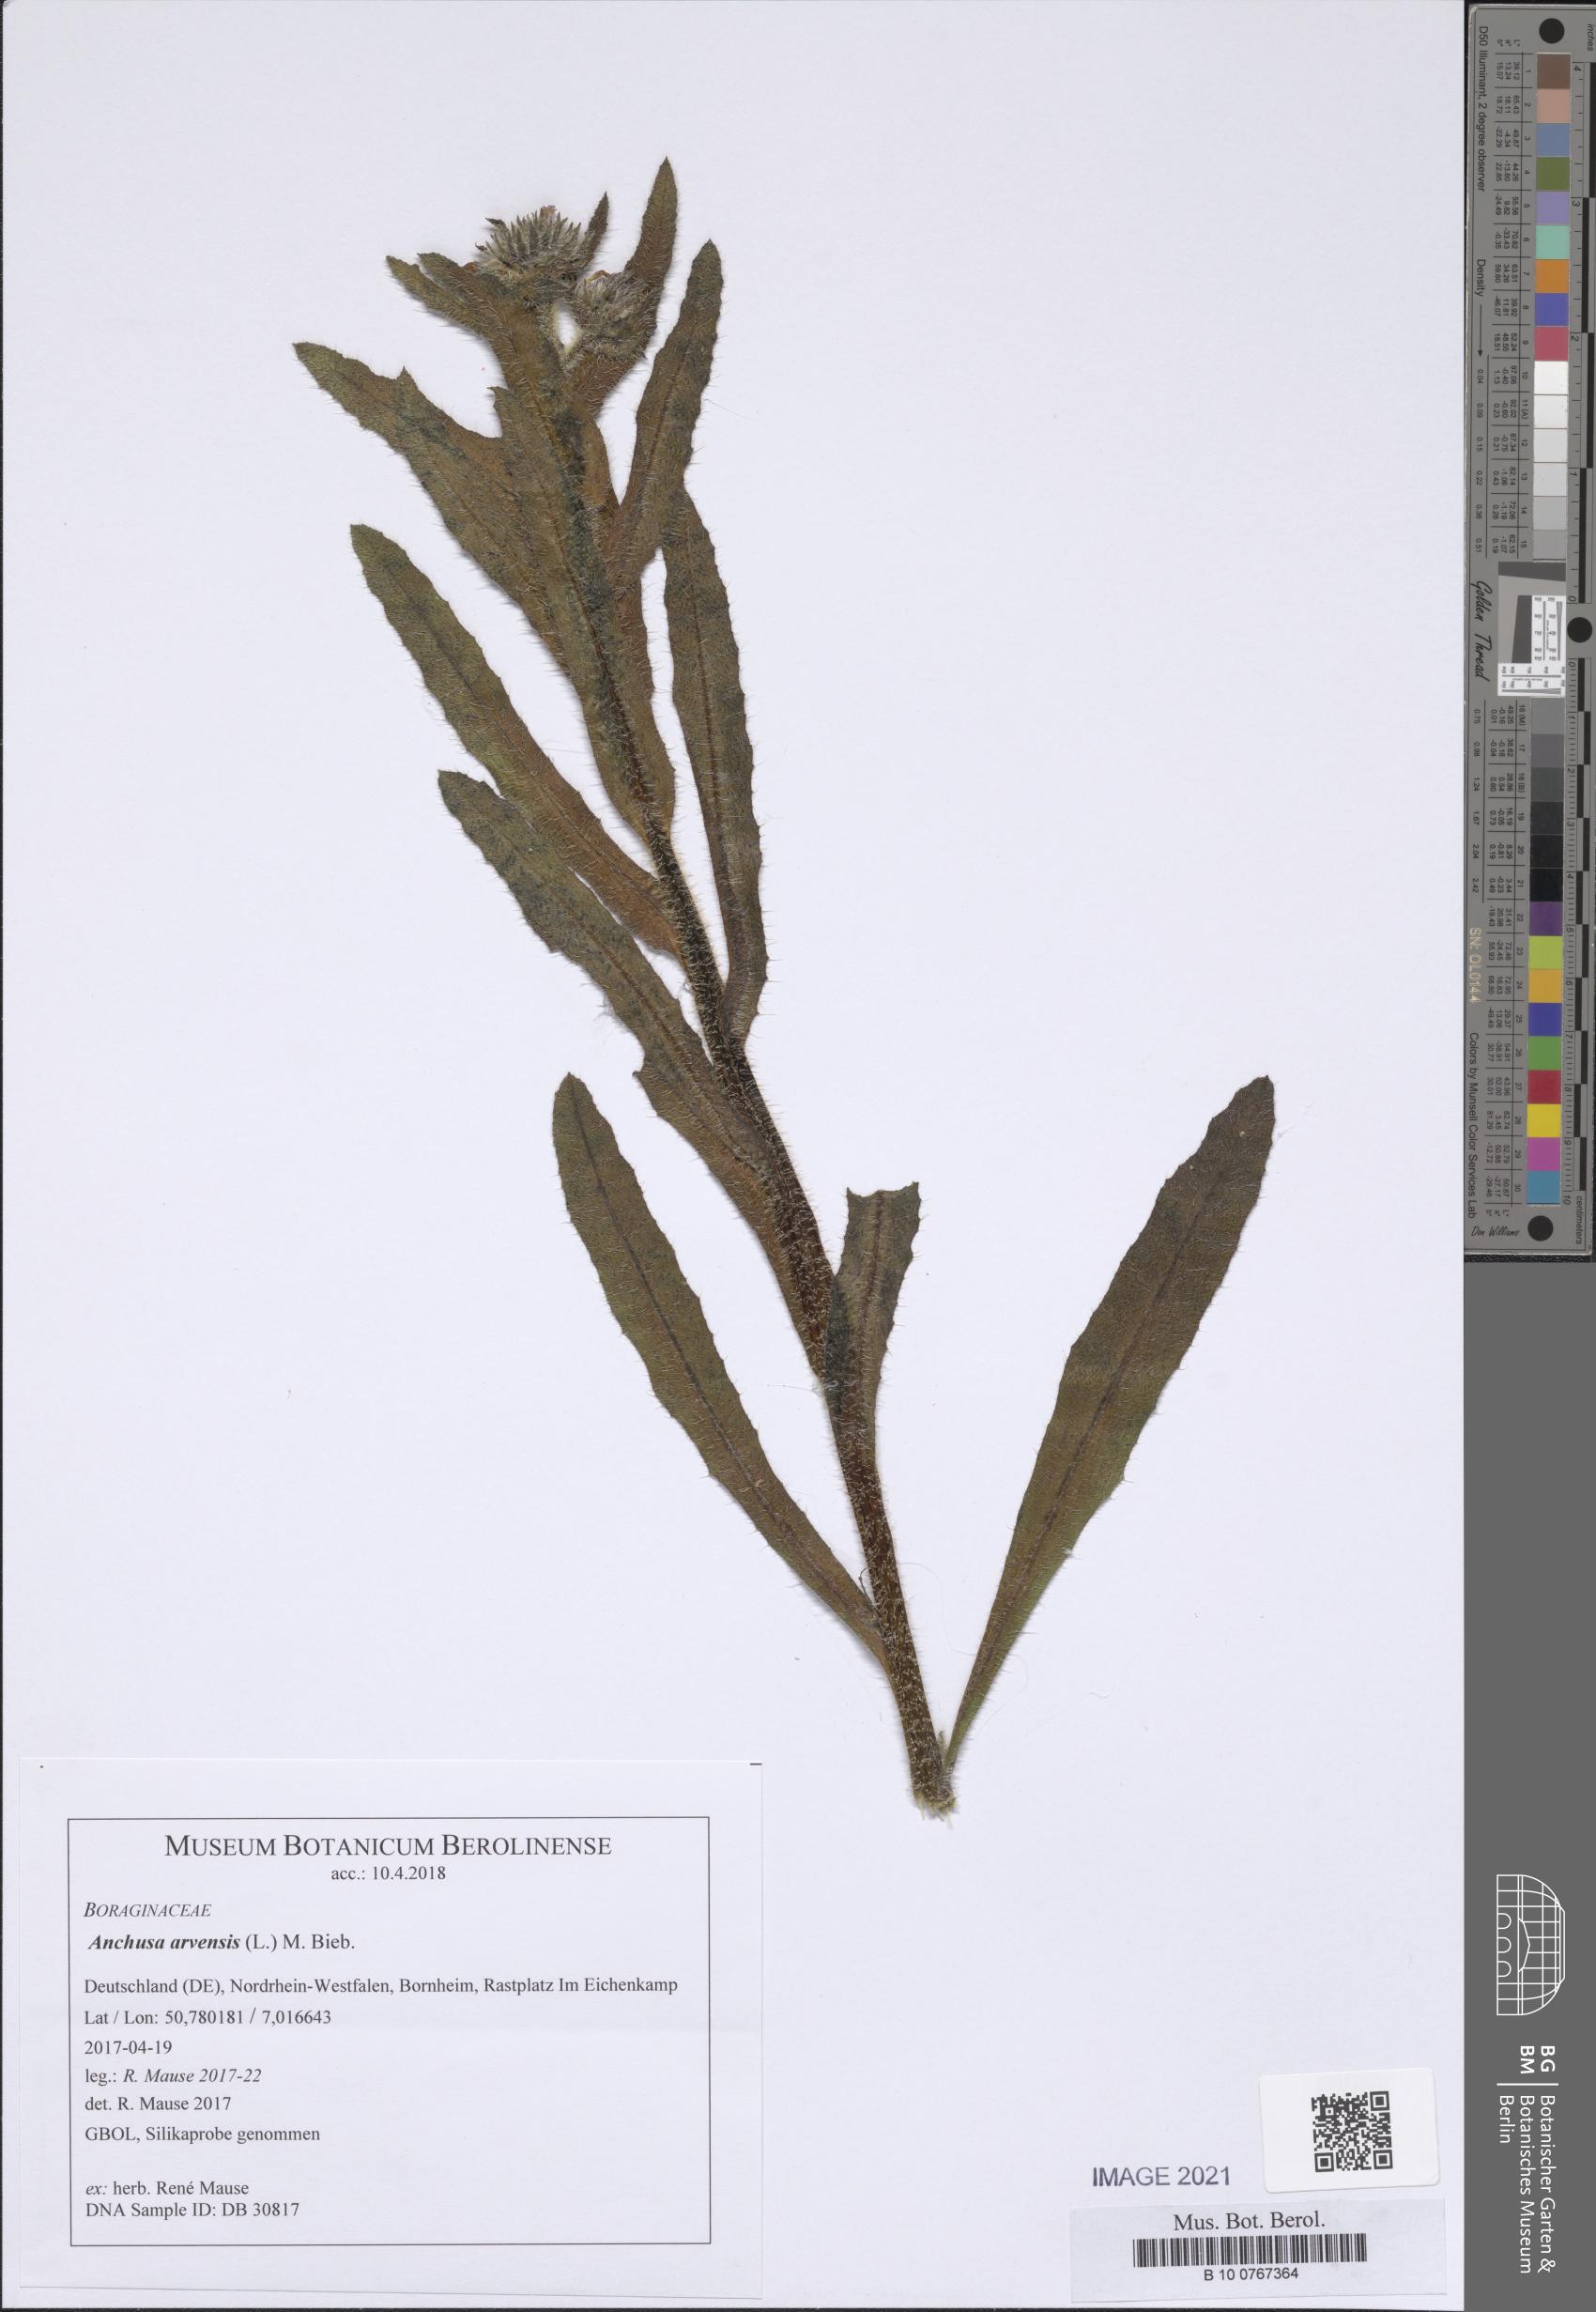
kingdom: Plantae
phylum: Tracheophyta
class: Magnoliopsida
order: Boraginales
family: Boraginaceae
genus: Lycopsis
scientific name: Lycopsis arvensis
